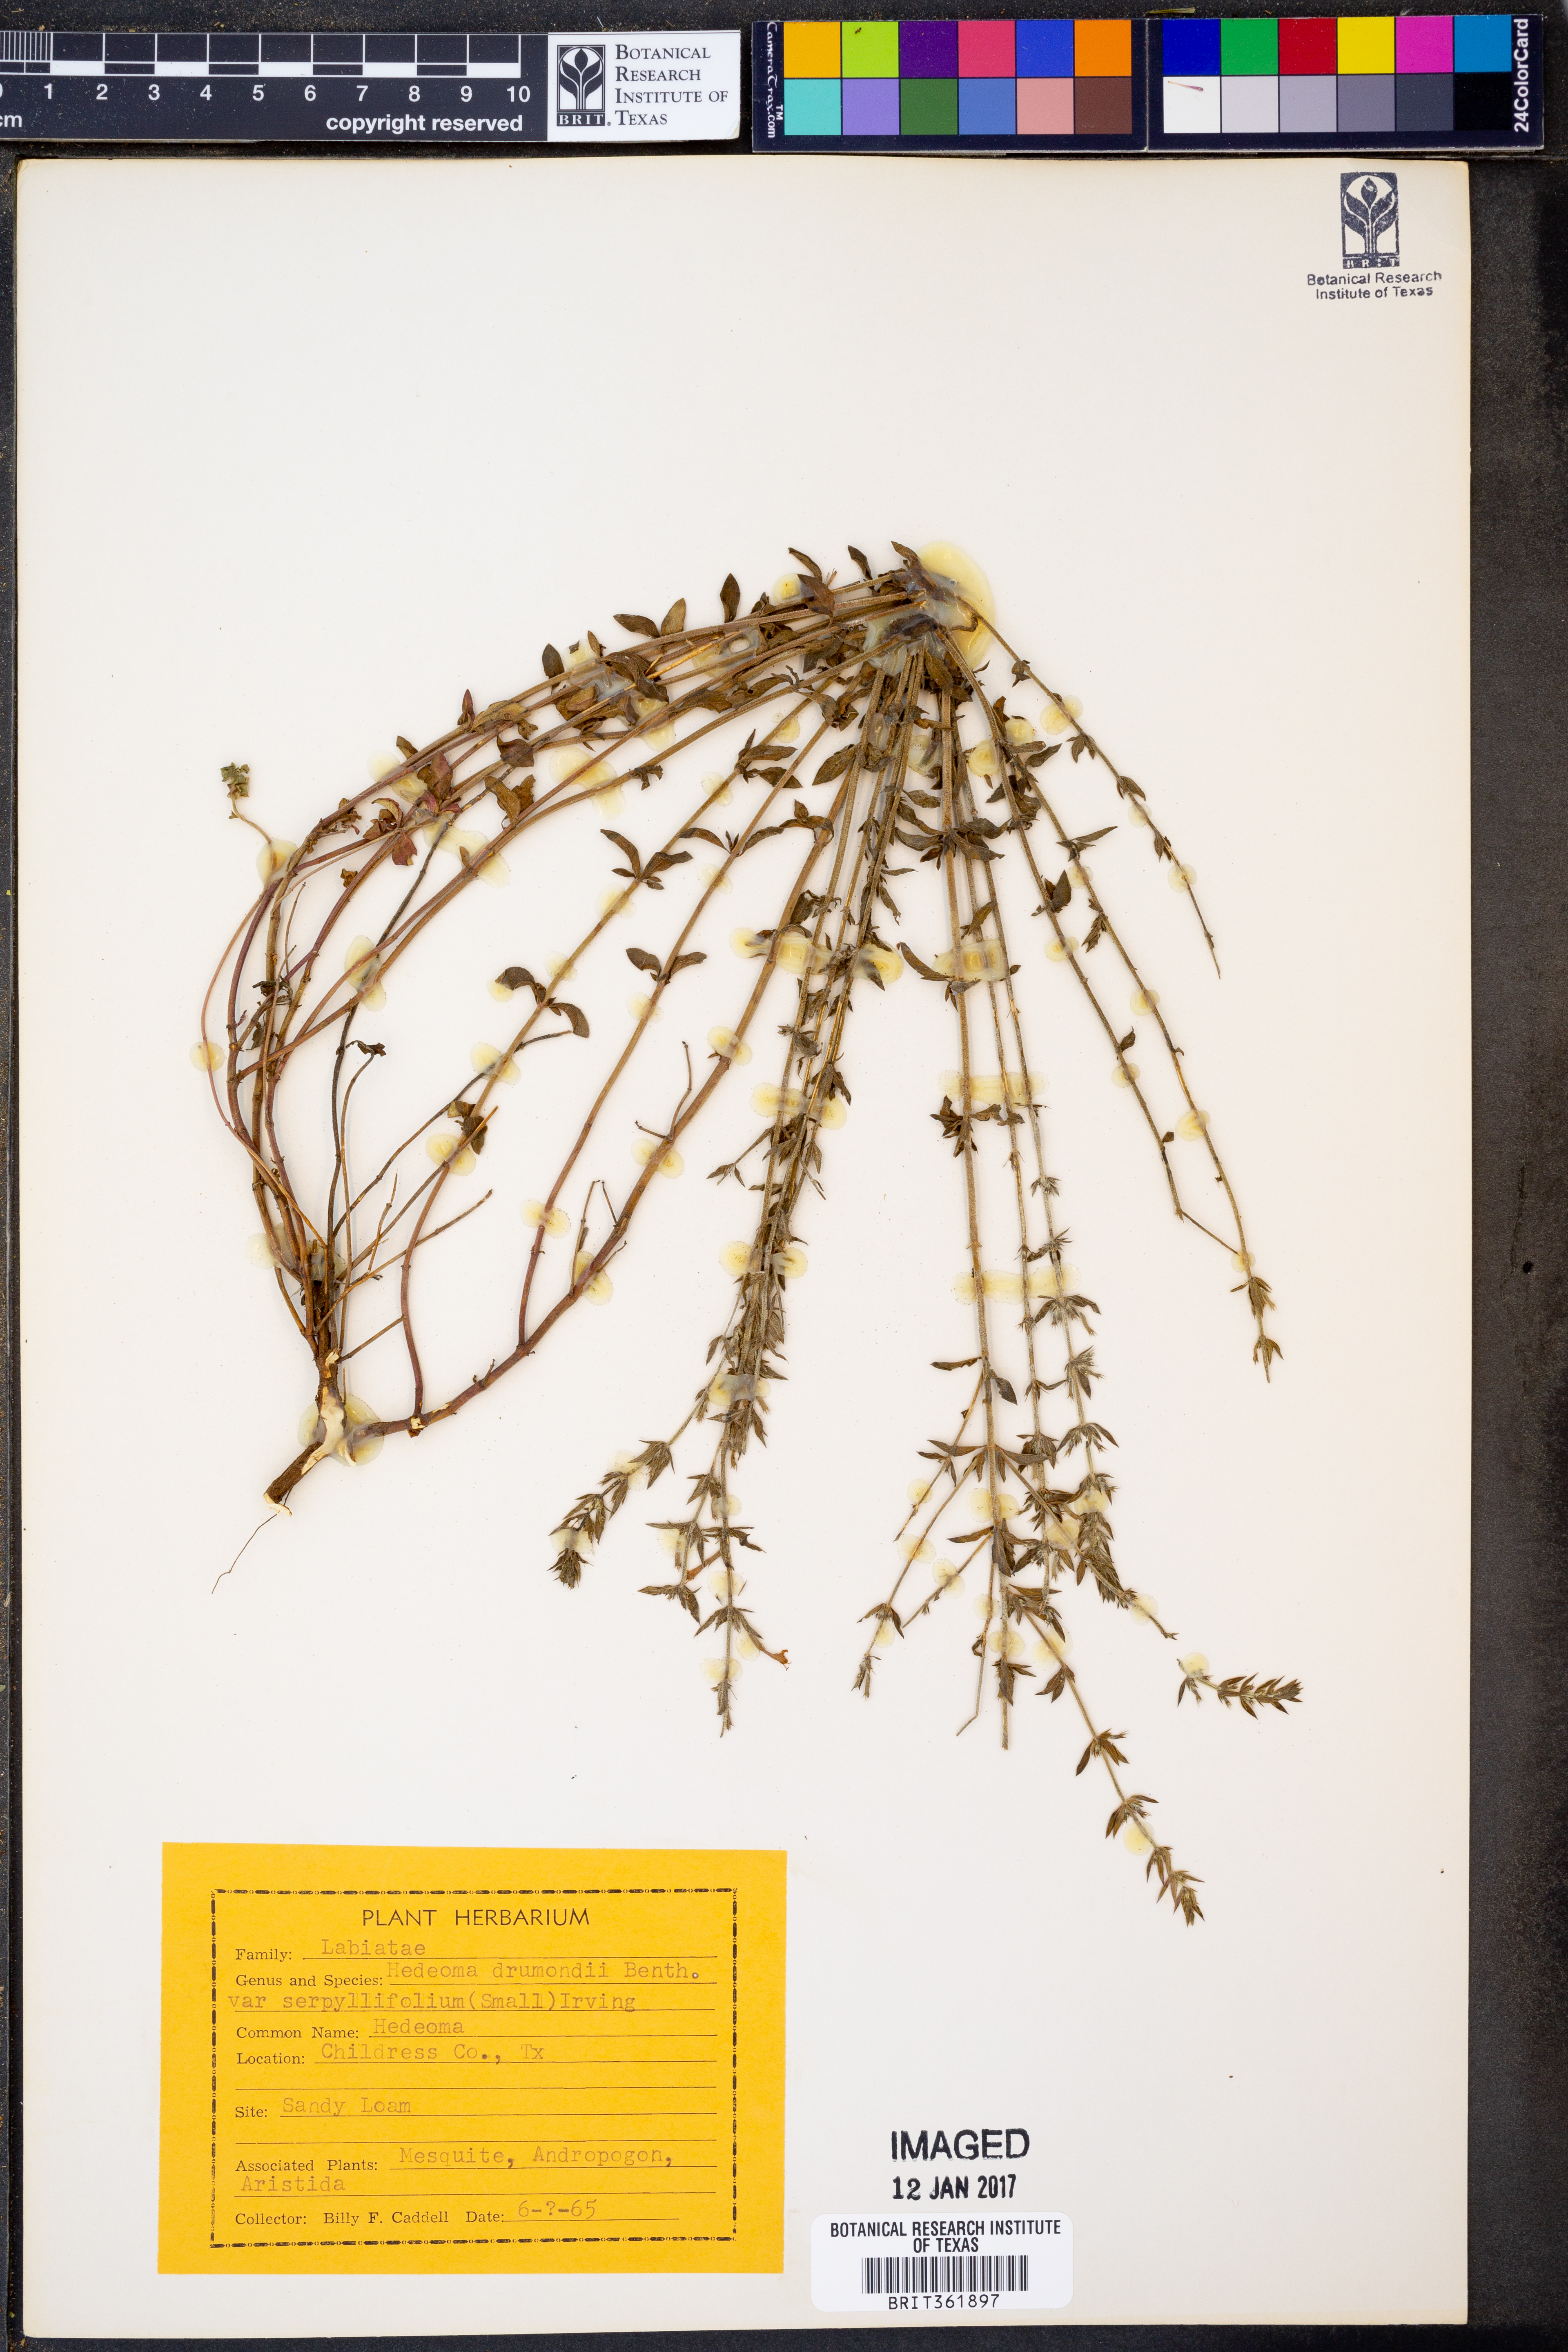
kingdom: Plantae
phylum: Tracheophyta
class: Magnoliopsida
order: Lamiales
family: Lamiaceae
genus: Hedeoma
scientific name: Hedeoma drummondii
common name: New mexico pennyroyal
